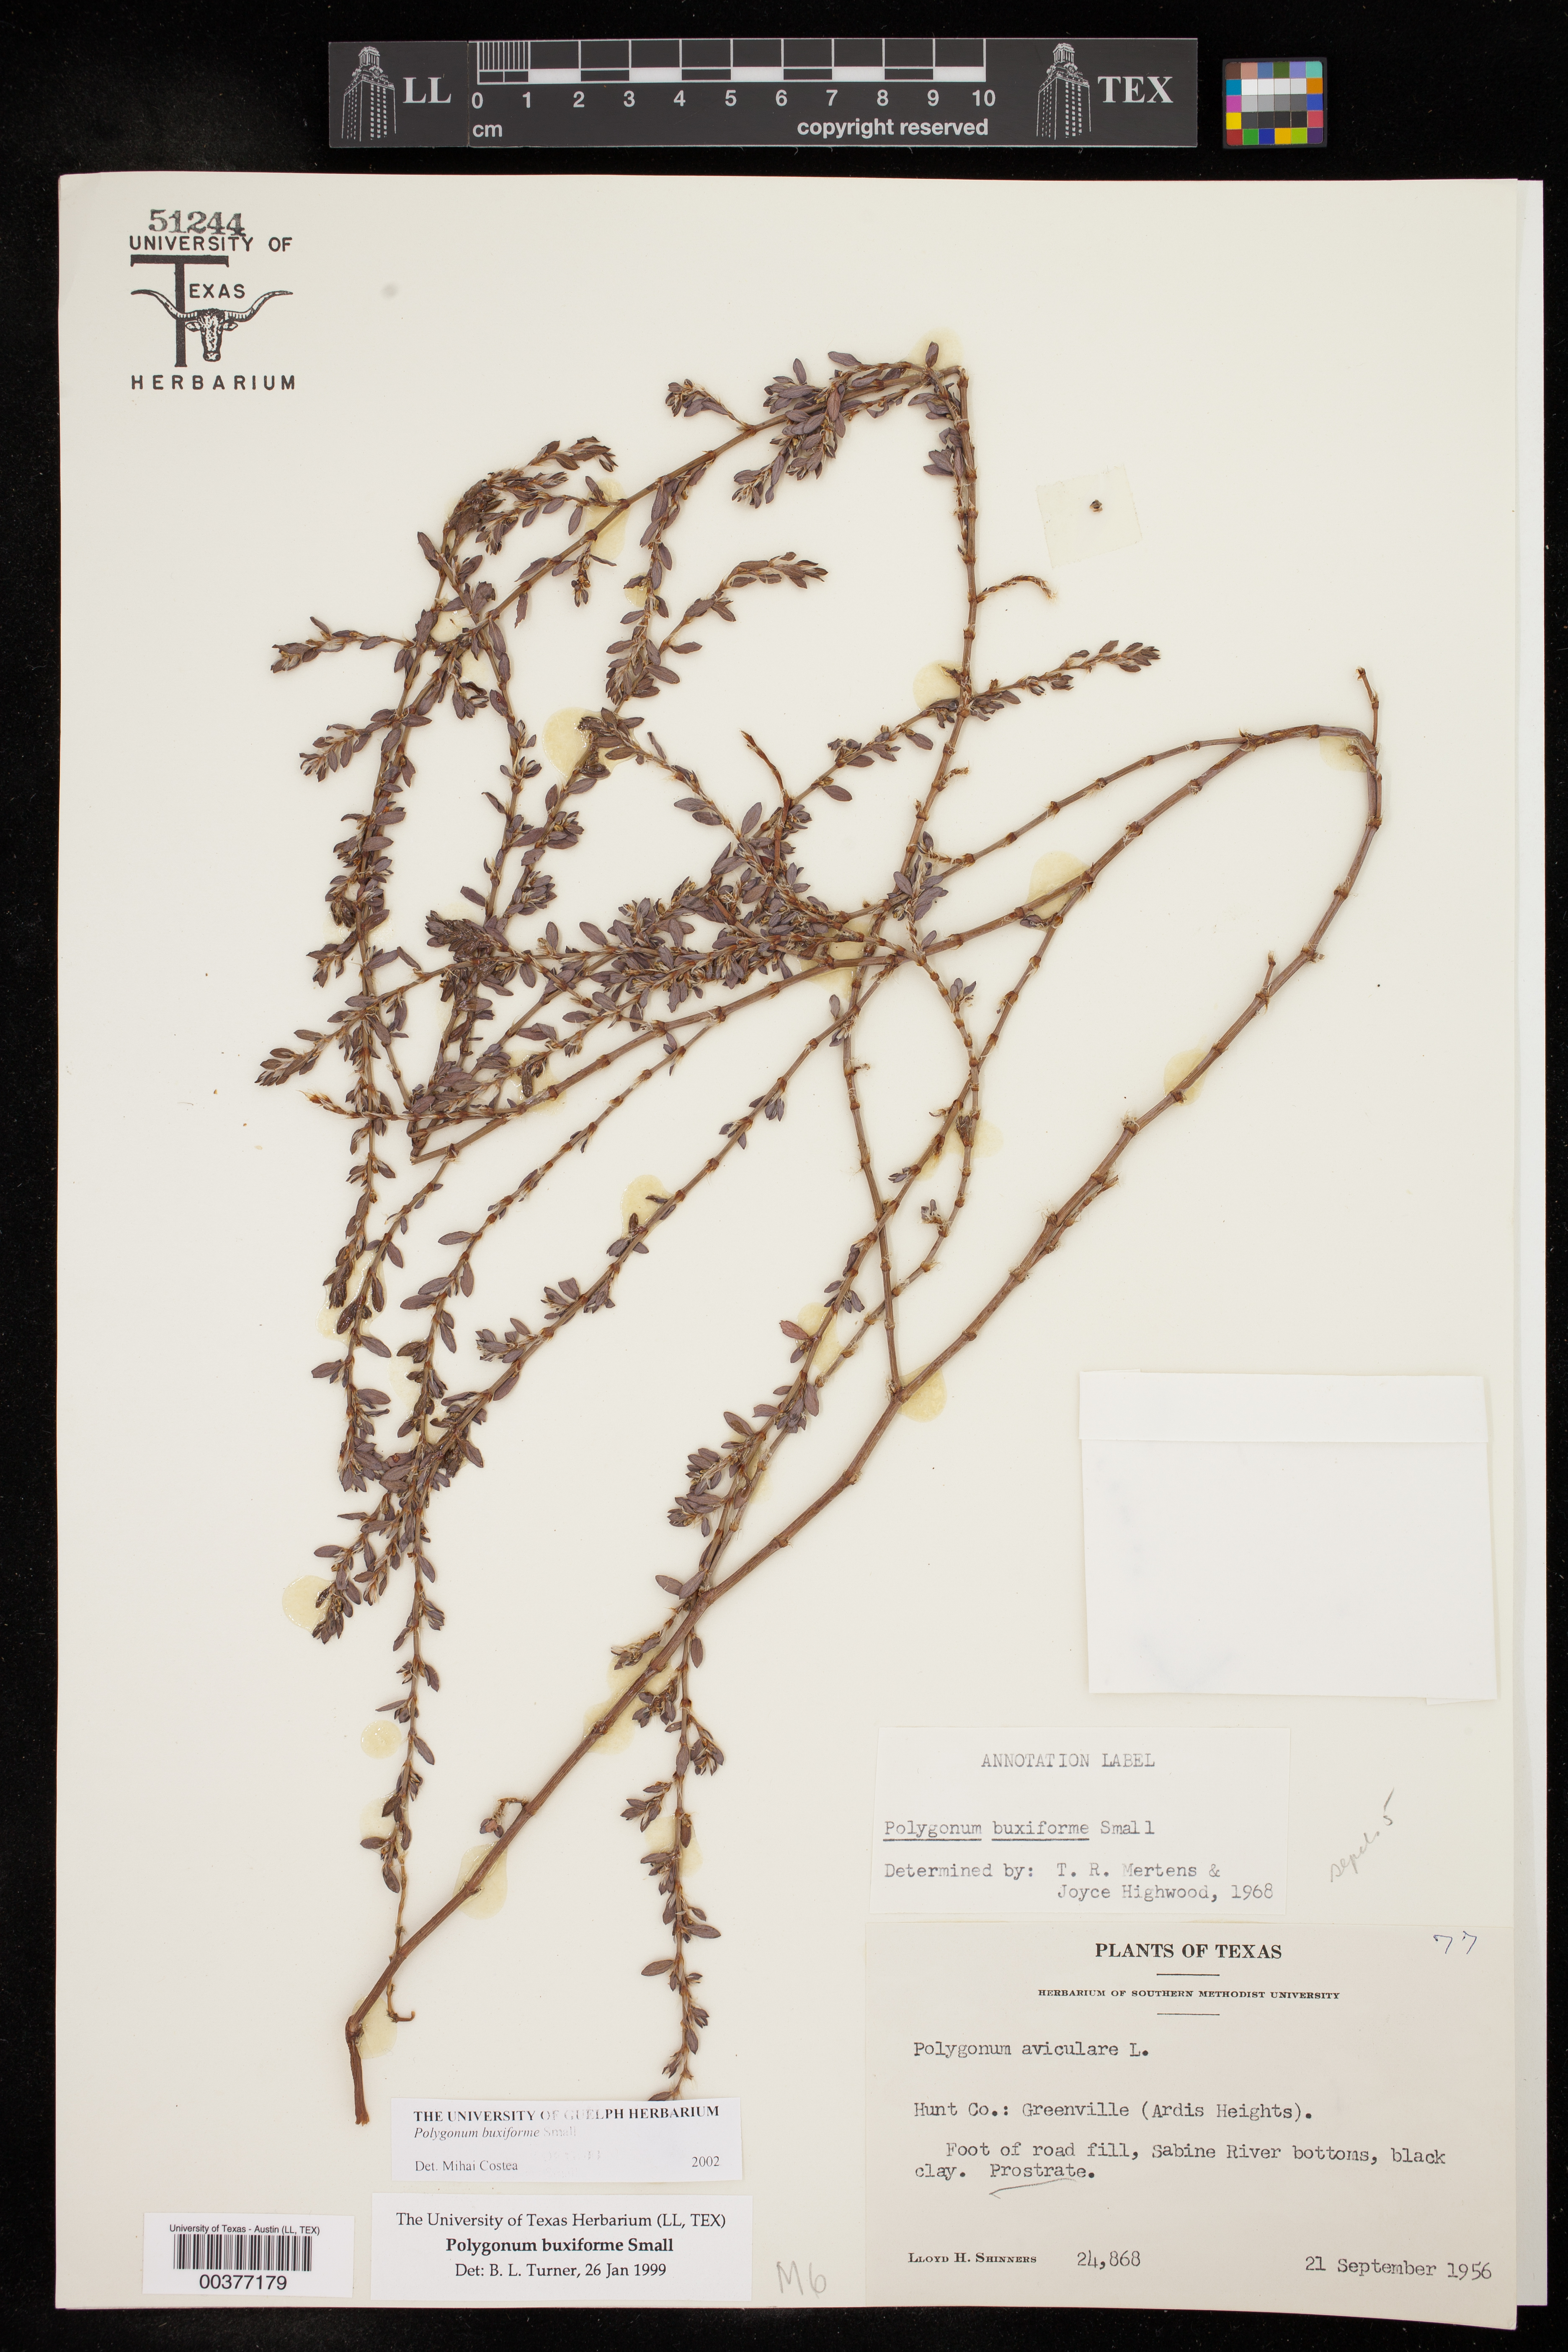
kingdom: Plantae
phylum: Tracheophyta
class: Magnoliopsida
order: Caryophyllales
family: Polygonaceae
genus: Polygonum
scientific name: Polygonum aviculare
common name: Prostrate knotweed
